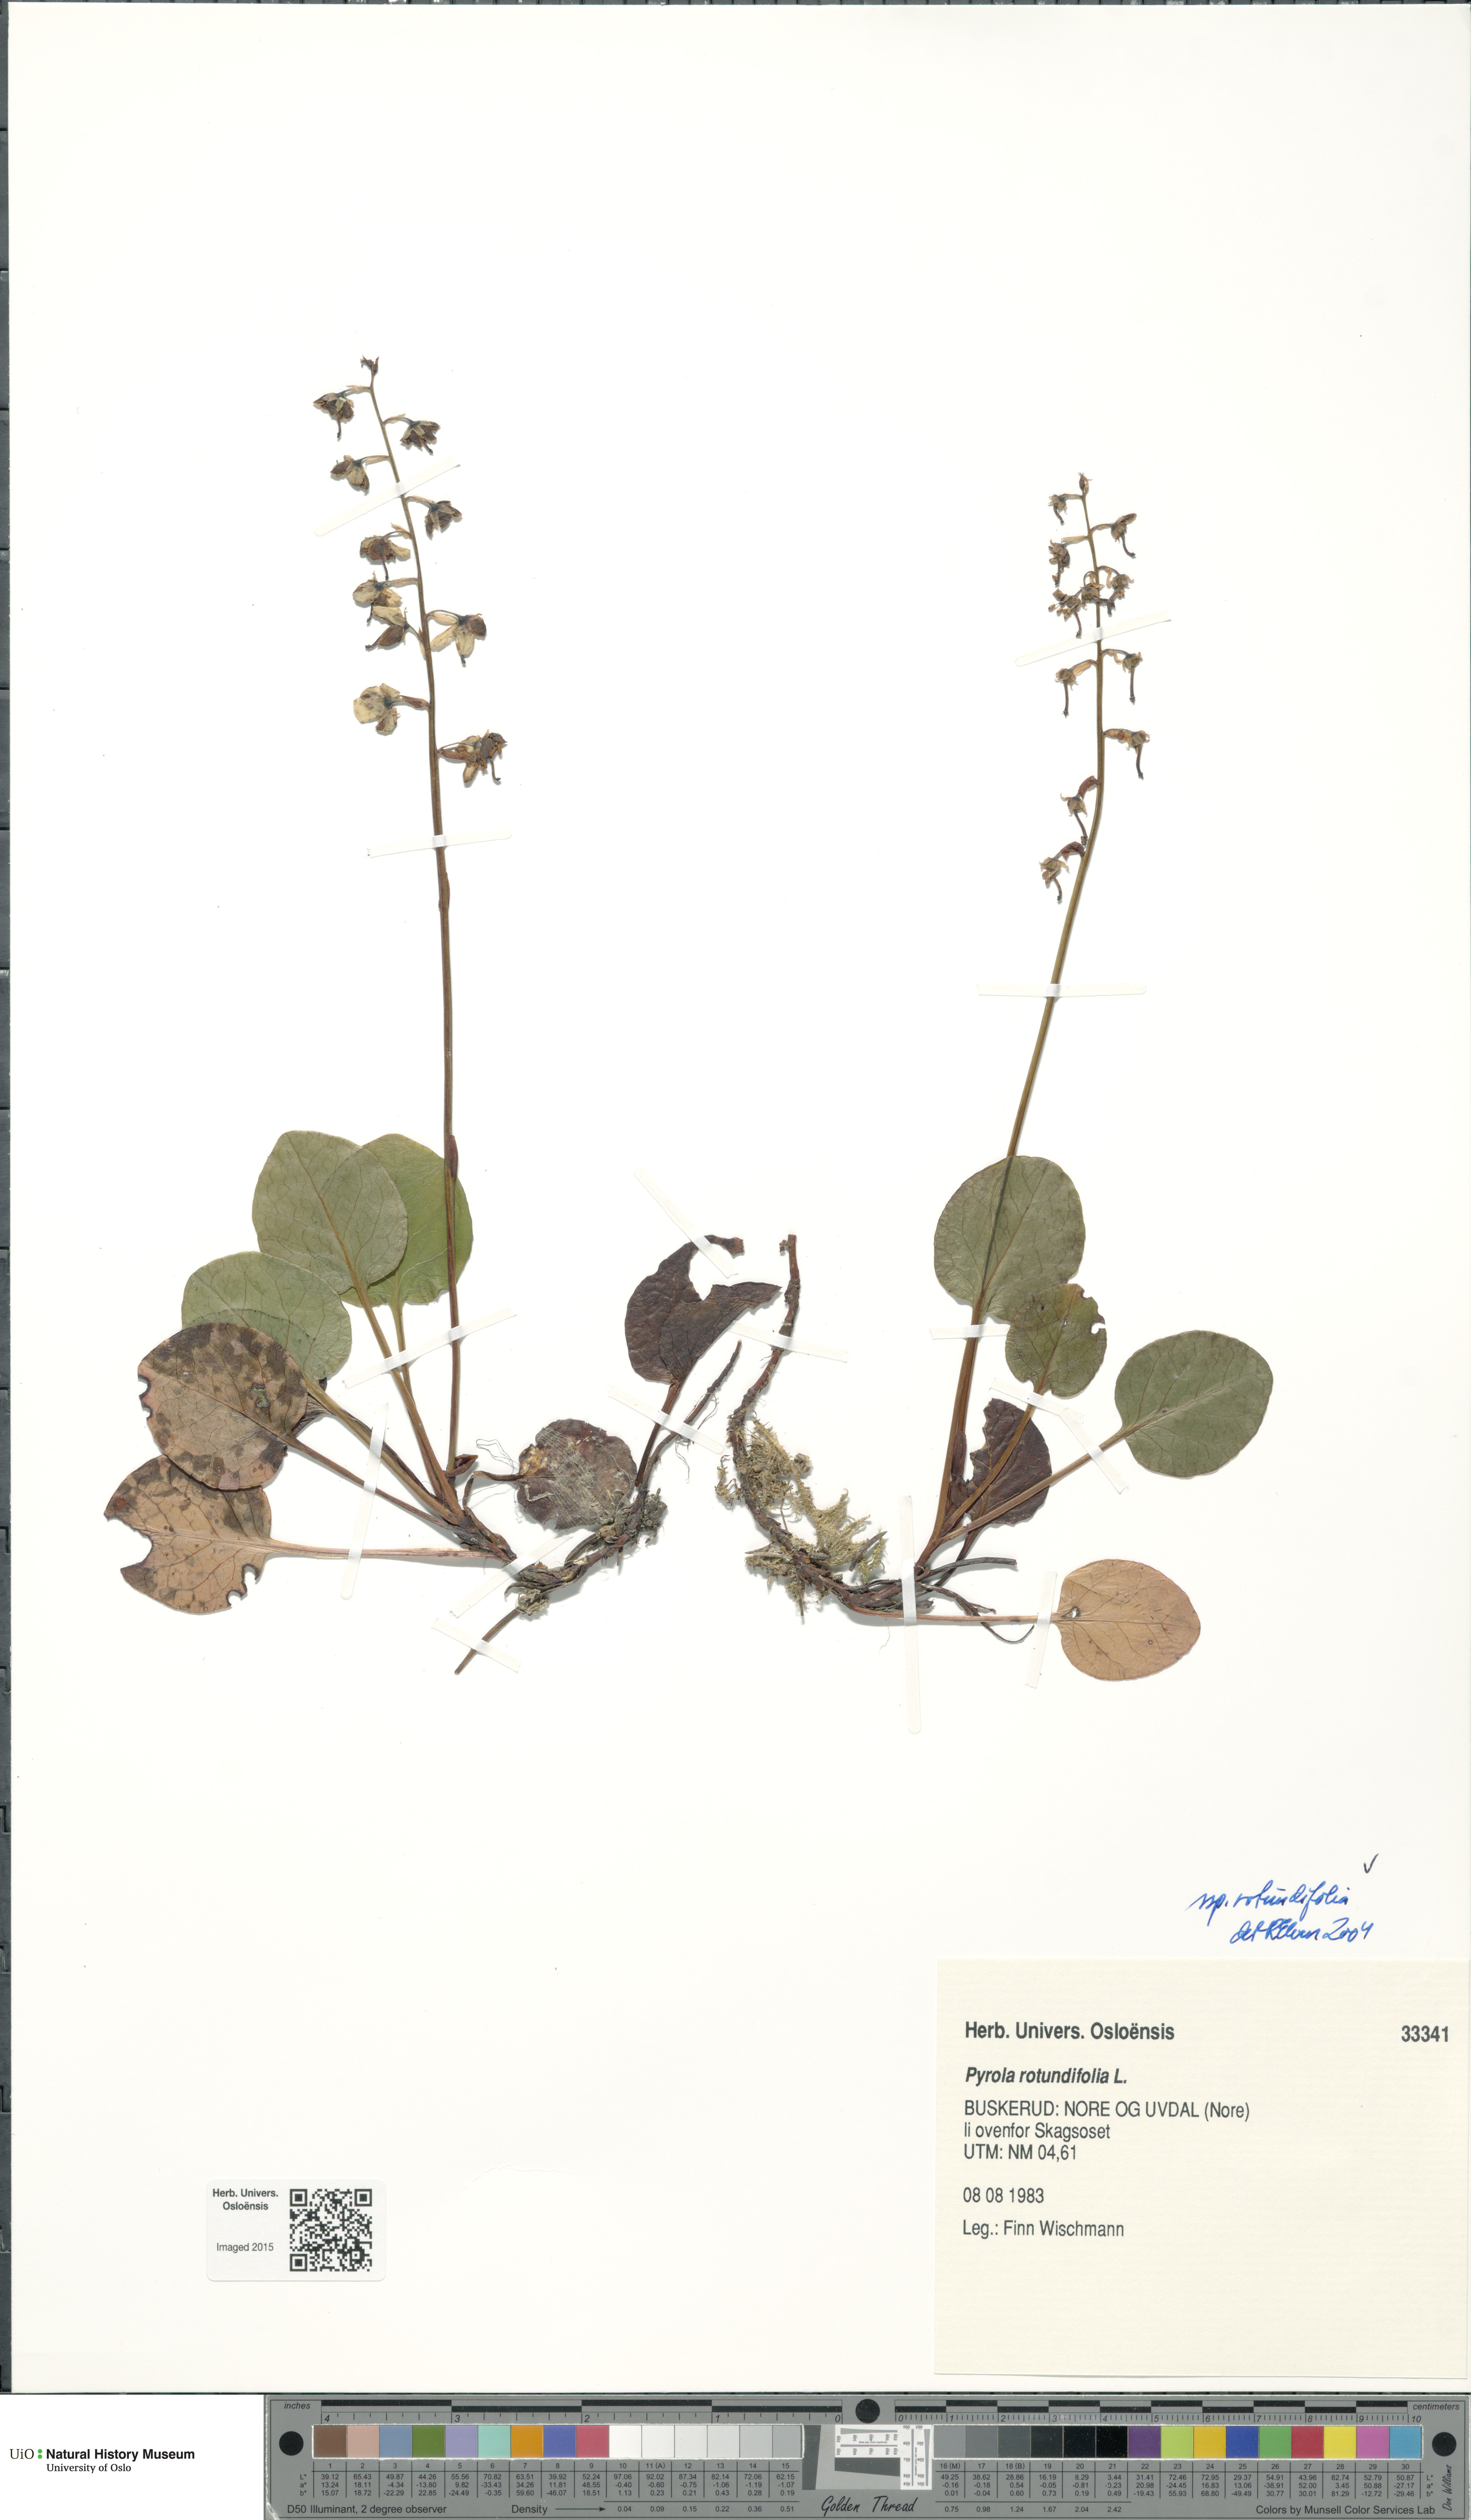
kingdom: Plantae
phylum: Tracheophyta
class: Magnoliopsida
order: Ericales
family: Ericaceae
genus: Pyrola
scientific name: Pyrola rotundifolia
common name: Round-leaved wintergreen
